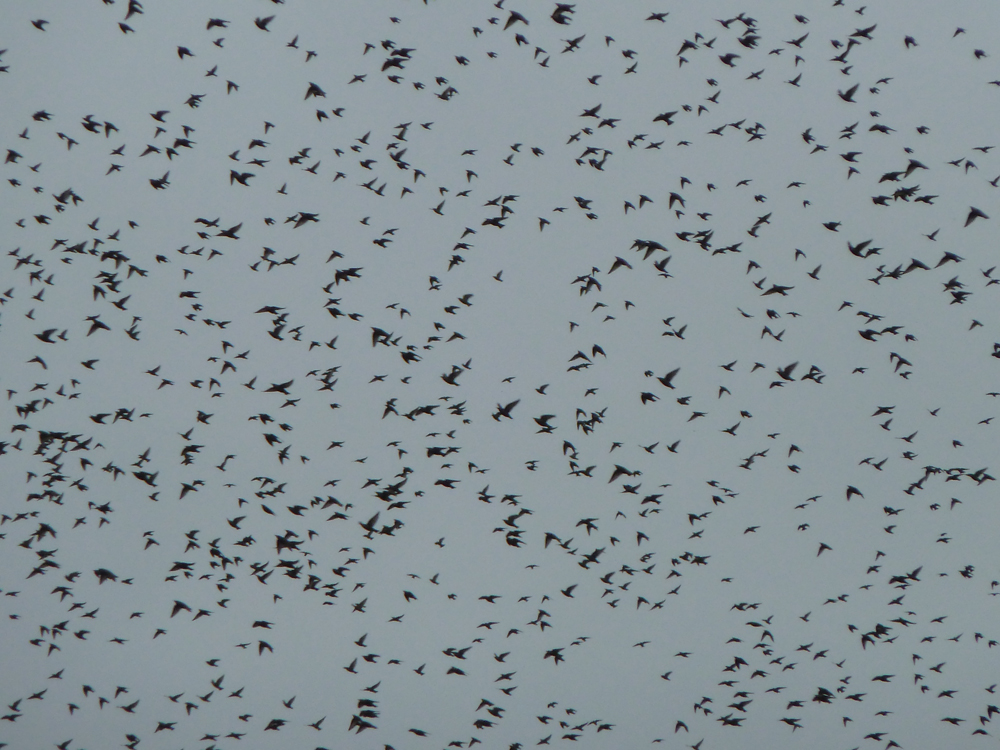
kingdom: Animalia
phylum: Chordata
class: Aves
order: Passeriformes
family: Sturnidae
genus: Sturnus
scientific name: Sturnus vulgaris
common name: Common starling
